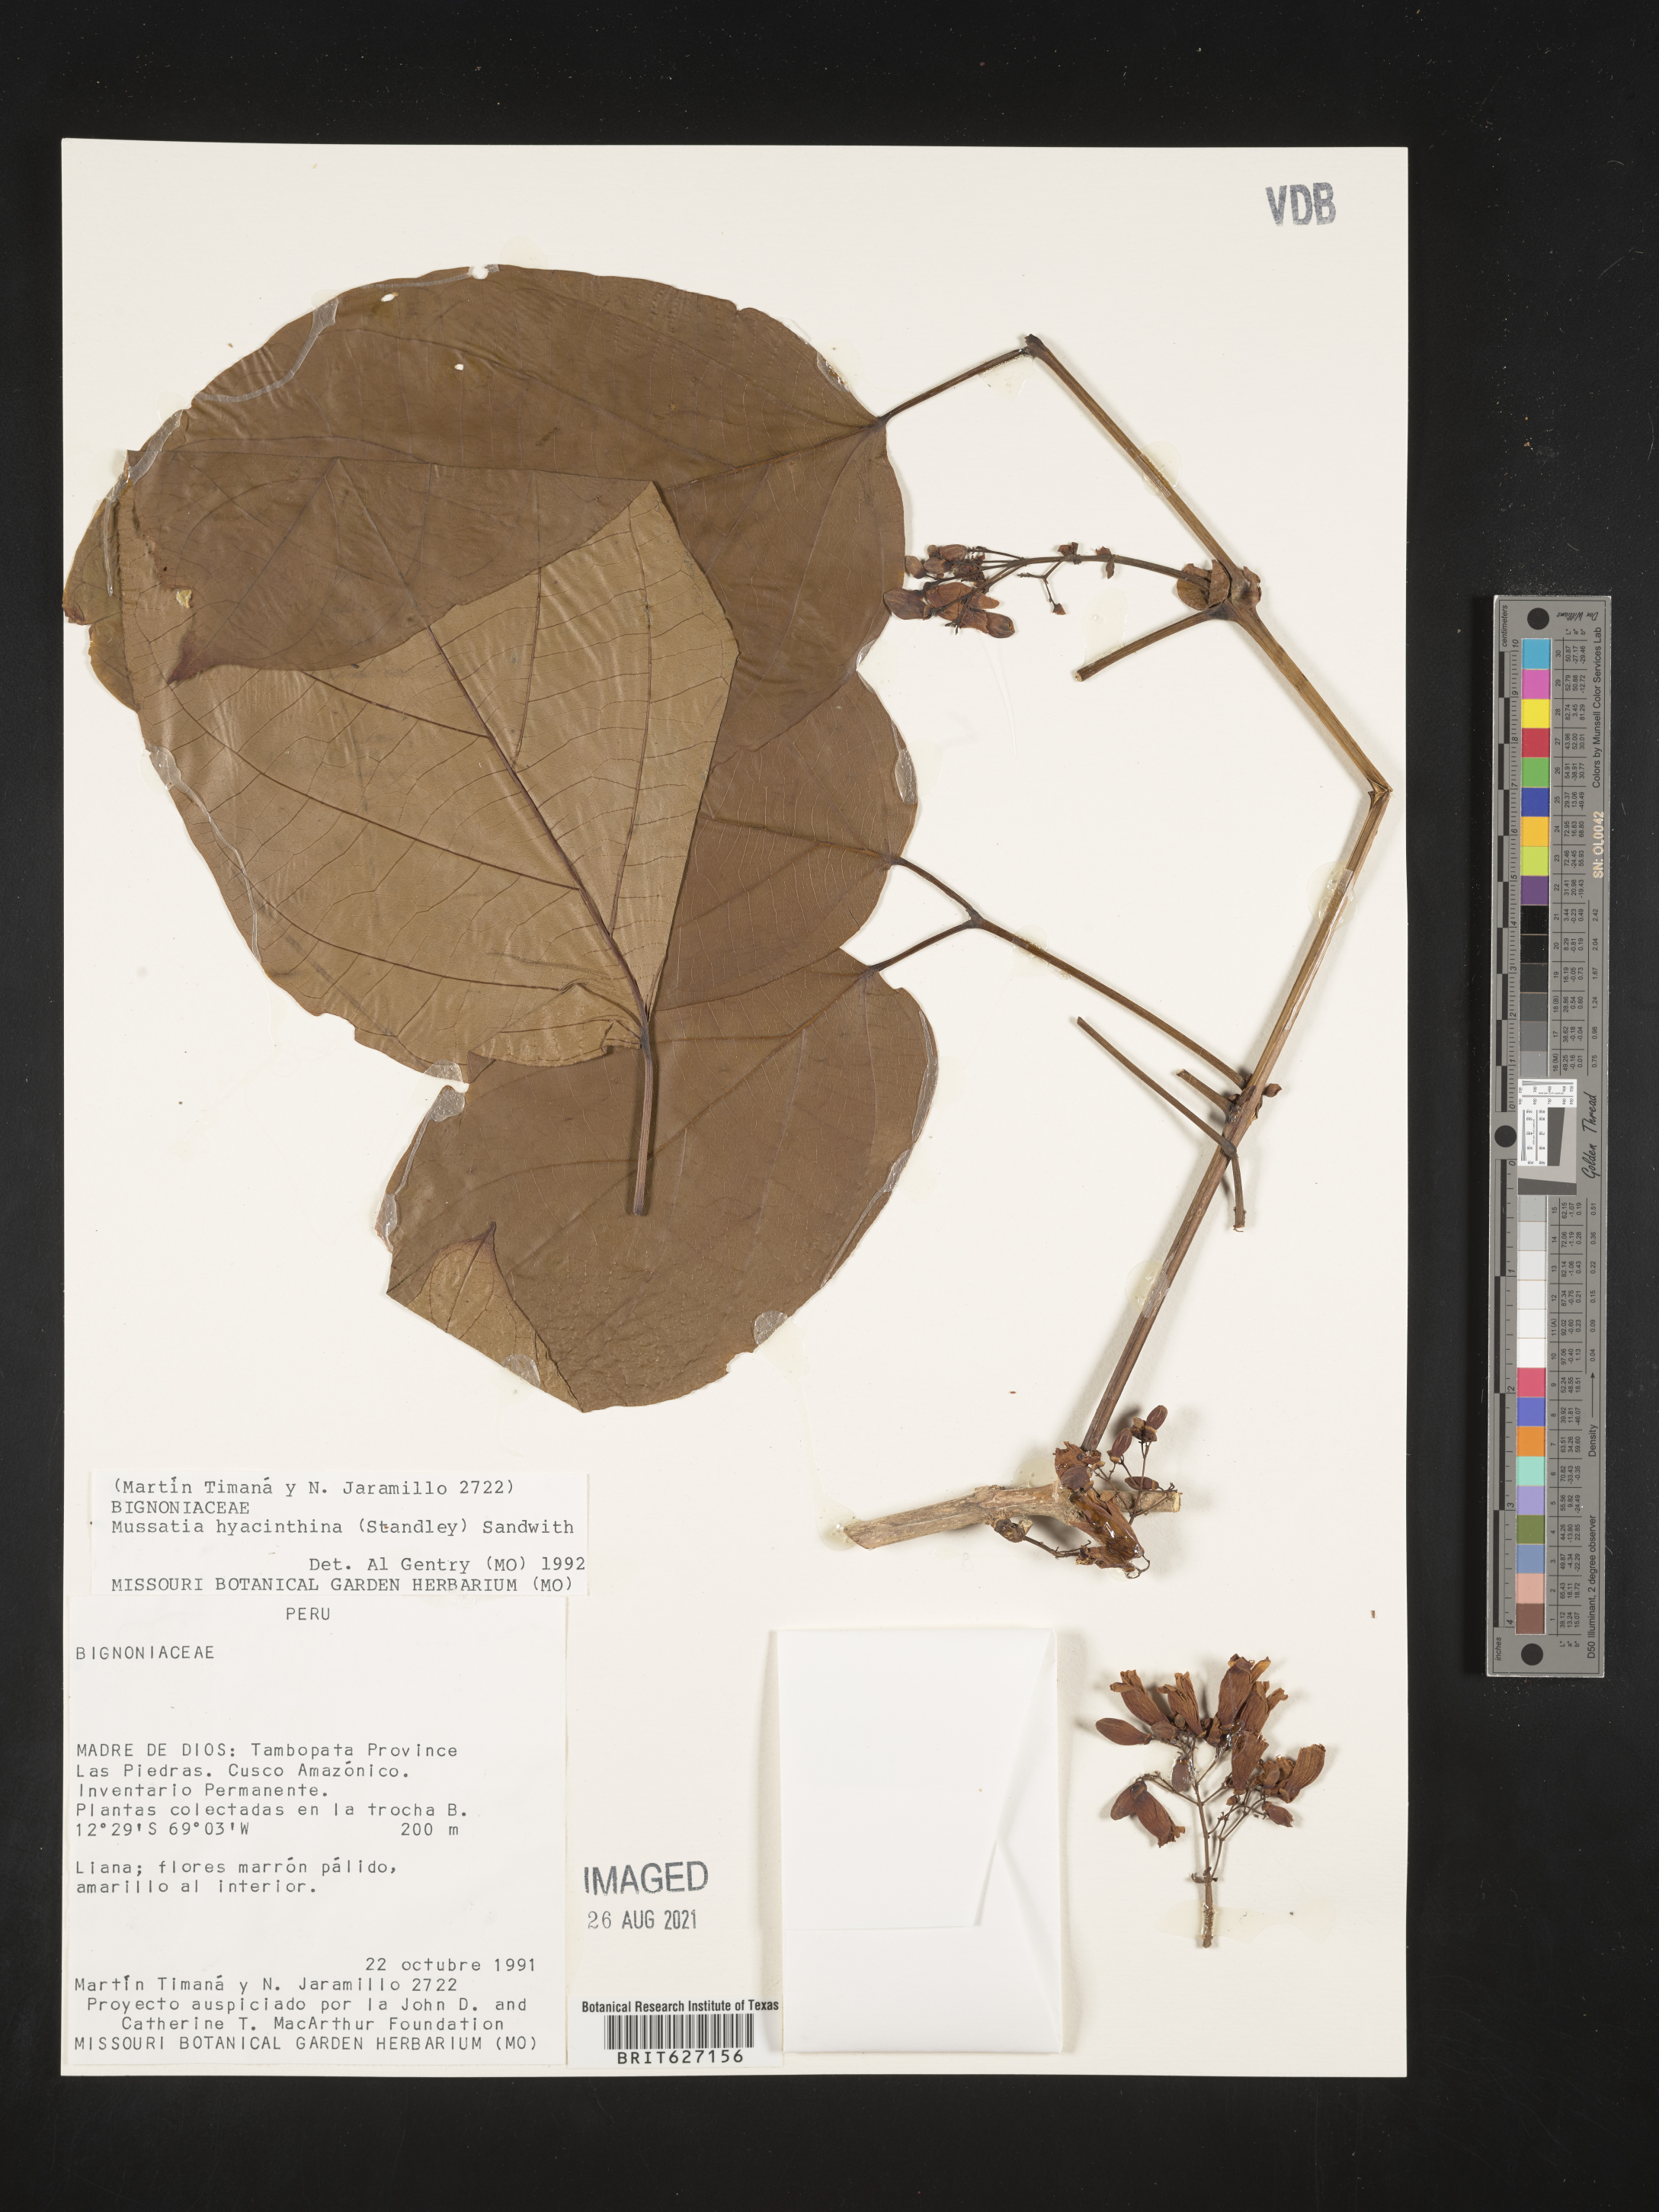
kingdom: Plantae
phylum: Tracheophyta
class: Magnoliopsida
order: Lamiales
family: Bignoniaceae
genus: Bignonia
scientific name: Bignonia hyacinthina
